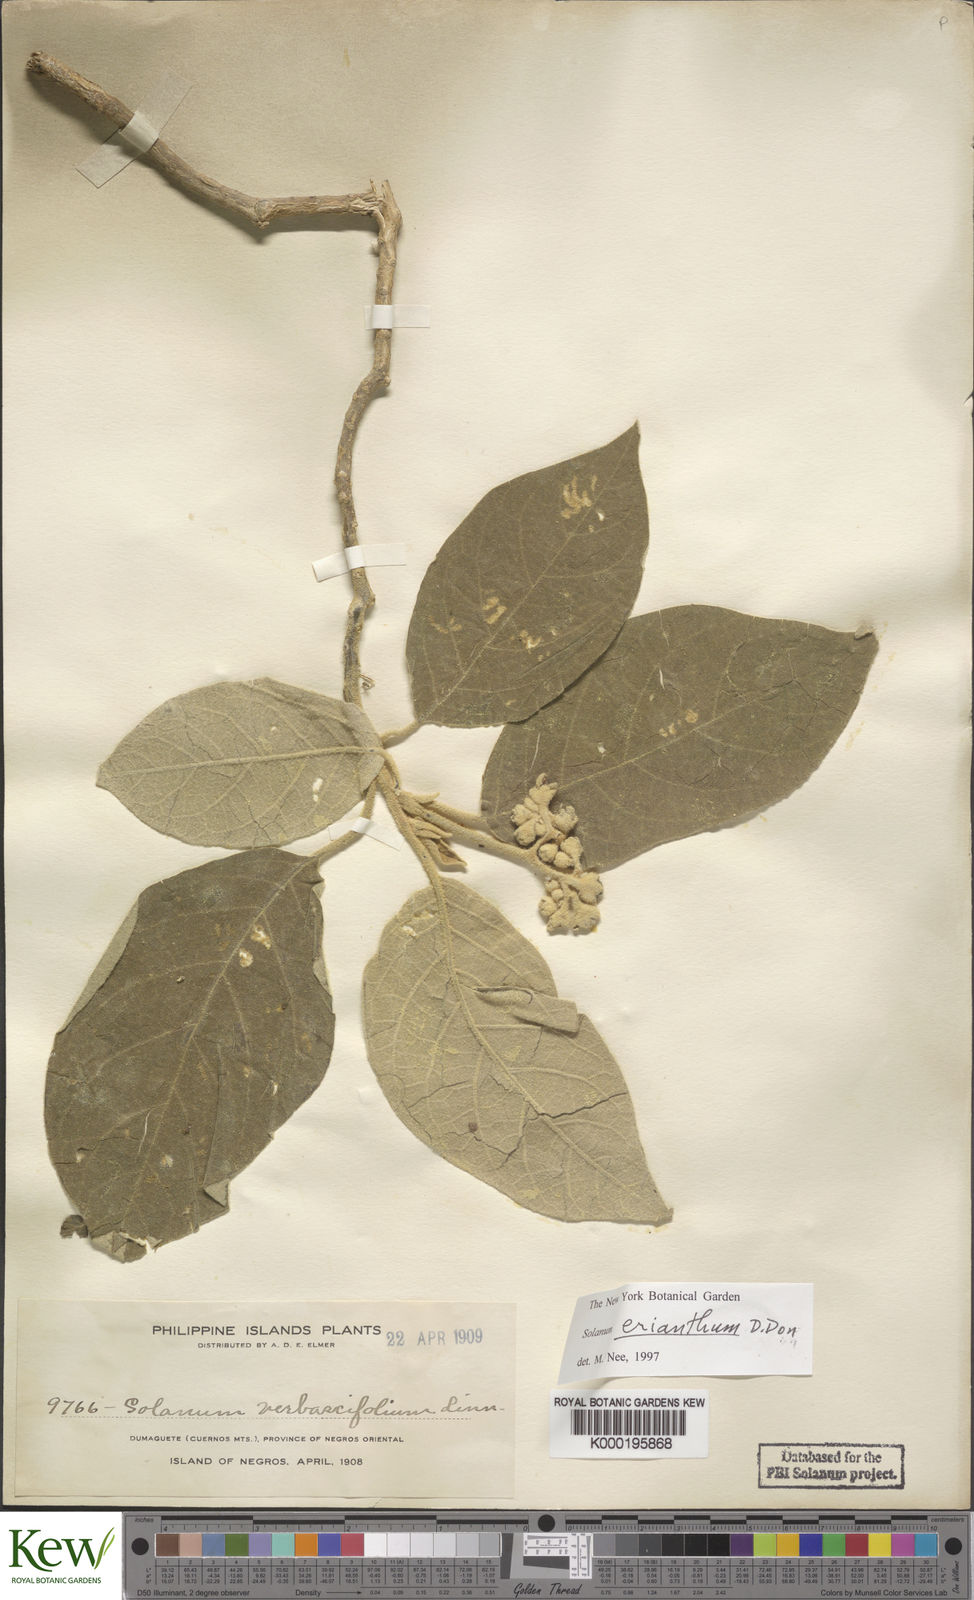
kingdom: Plantae
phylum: Tracheophyta
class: Magnoliopsida
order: Solanales
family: Solanaceae
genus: Solanum
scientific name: Solanum erianthum
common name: Tobacco-tree
